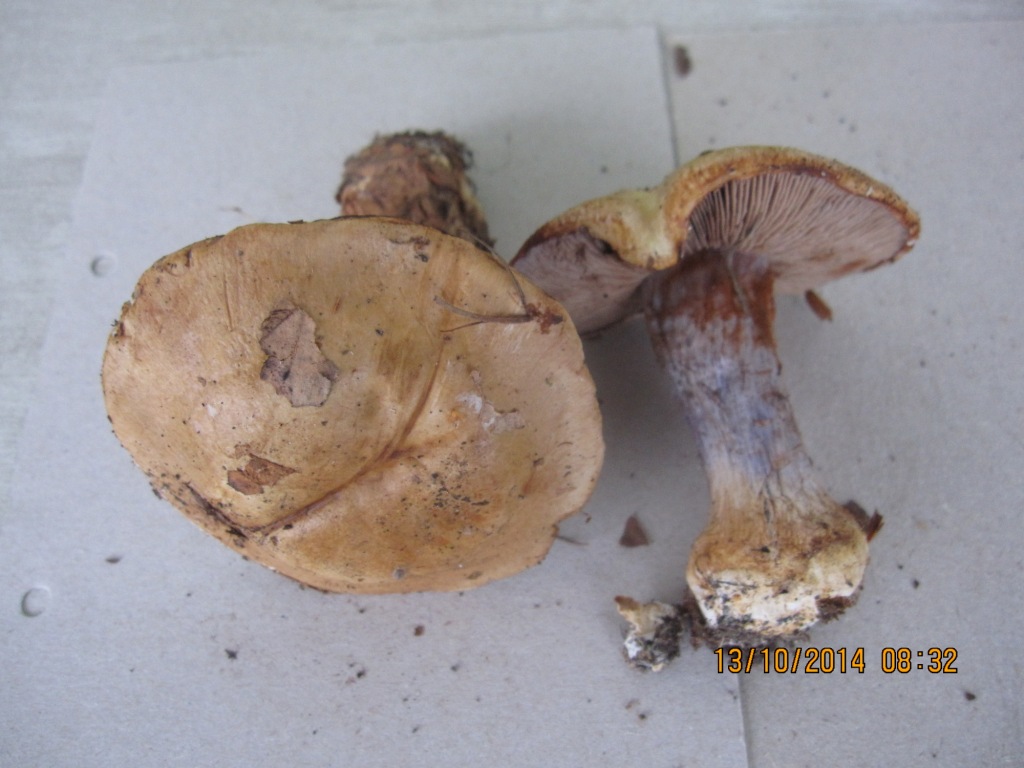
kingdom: Fungi
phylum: Basidiomycota
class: Agaricomycetes
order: Agaricales
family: Cortinariaceae
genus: Cortinarius
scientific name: Cortinarius anserinus
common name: bøge-slørhat
